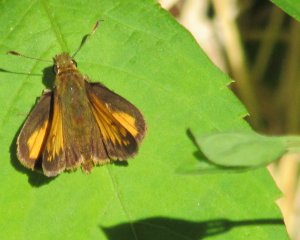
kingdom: Animalia
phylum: Arthropoda
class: Insecta
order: Lepidoptera
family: Hesperiidae
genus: Lon
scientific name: Lon hobomok
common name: Hobomok Skipper
